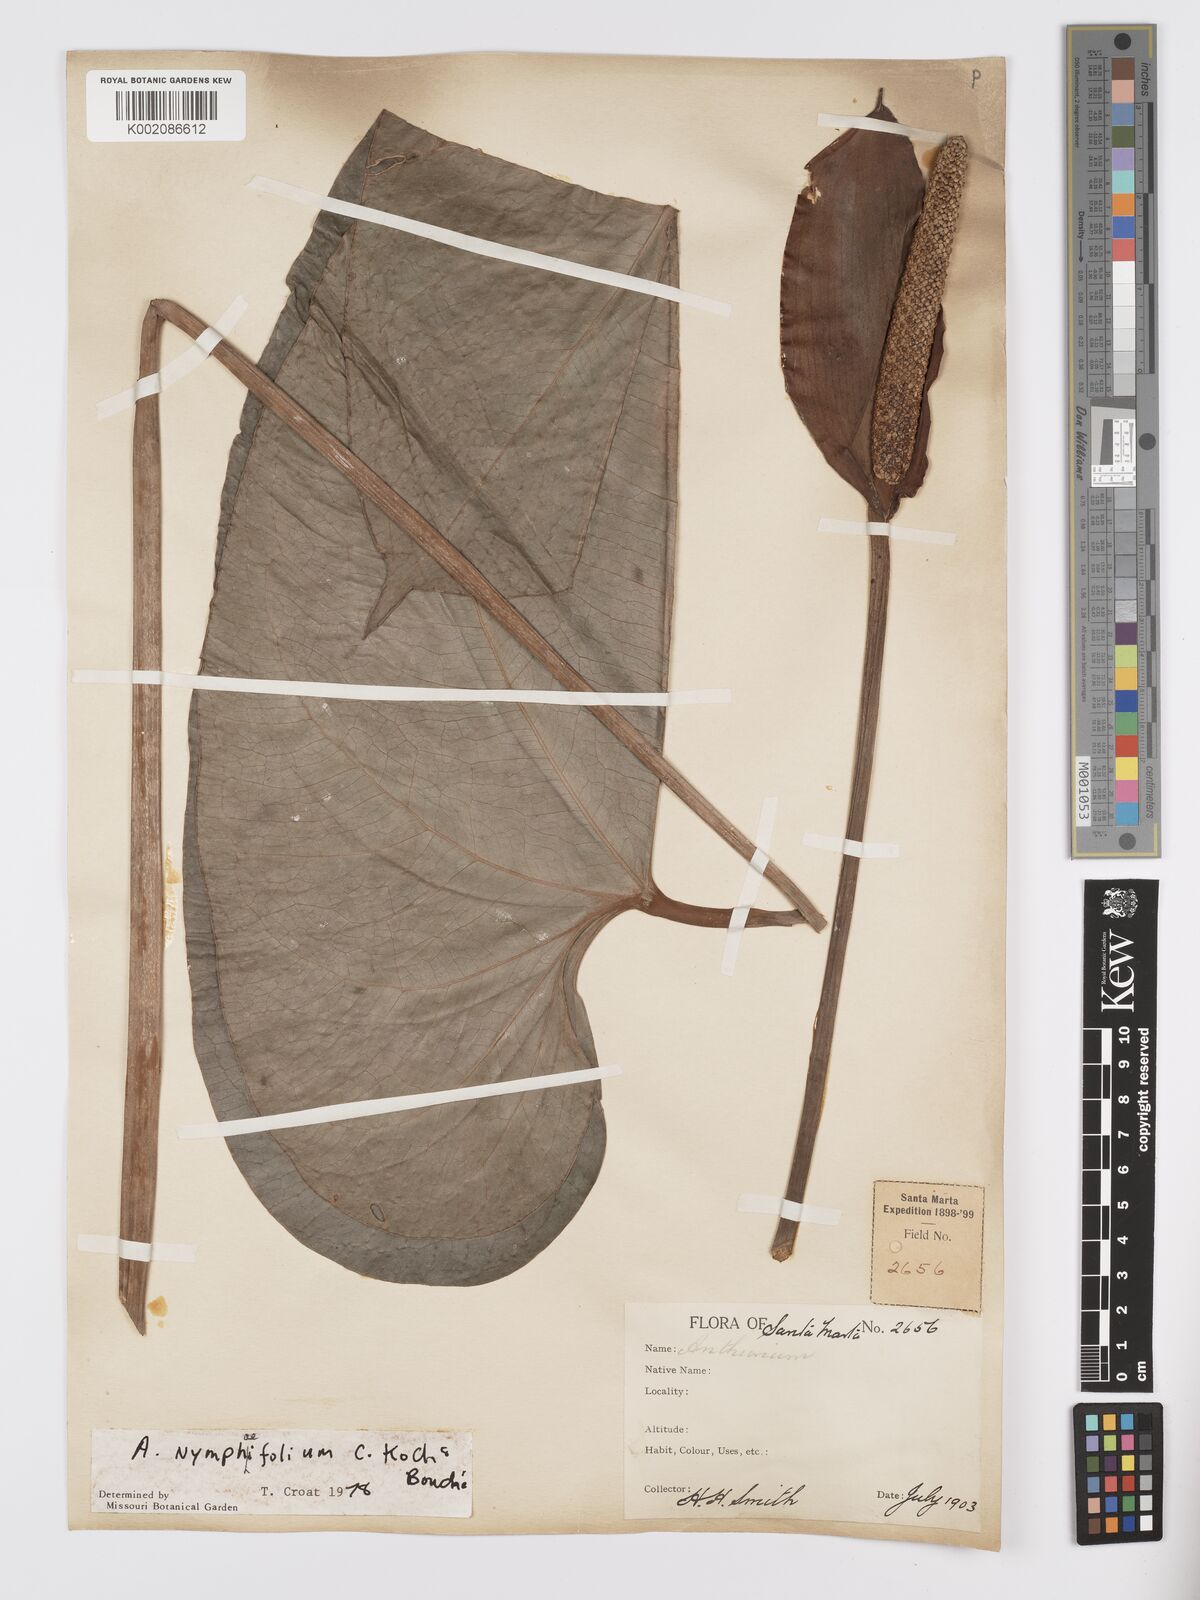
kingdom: Plantae
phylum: Tracheophyta
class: Liliopsida
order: Alismatales
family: Araceae
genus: Anthurium
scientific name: Anthurium nymphaeifolium
